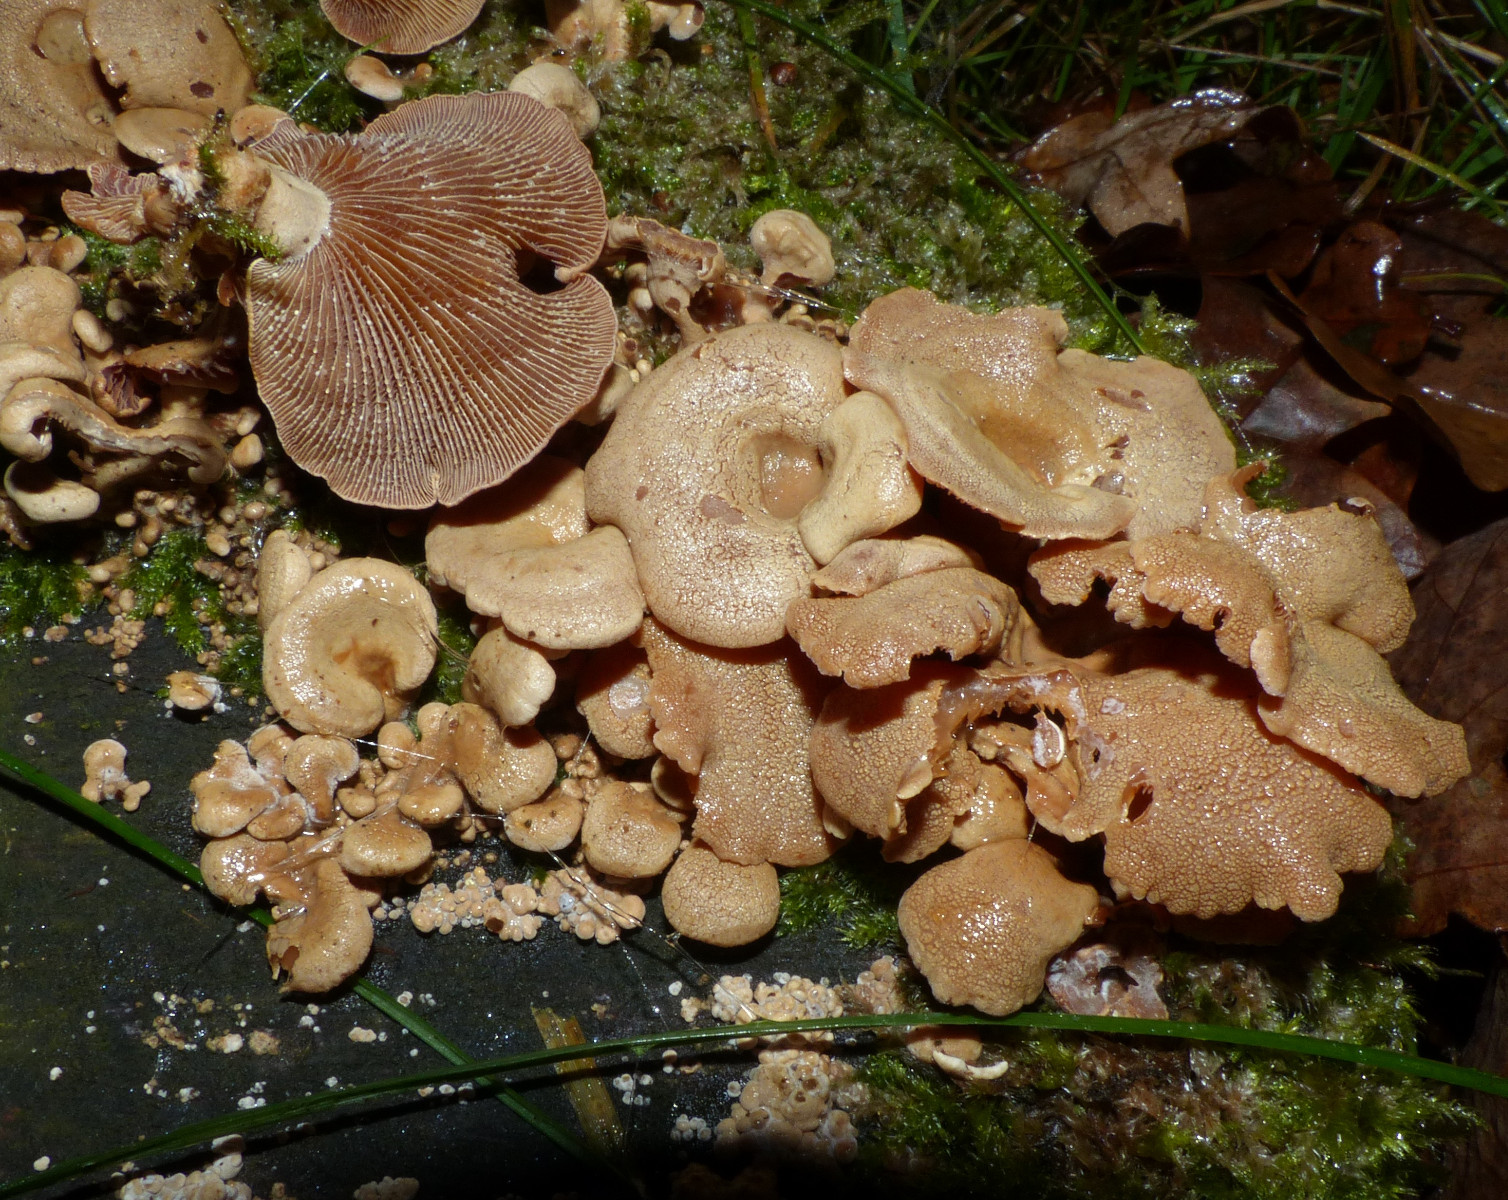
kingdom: Fungi
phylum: Basidiomycota
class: Agaricomycetes
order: Agaricales
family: Mycenaceae
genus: Panellus
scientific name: Panellus stipticus
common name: kliddet epaulethat
